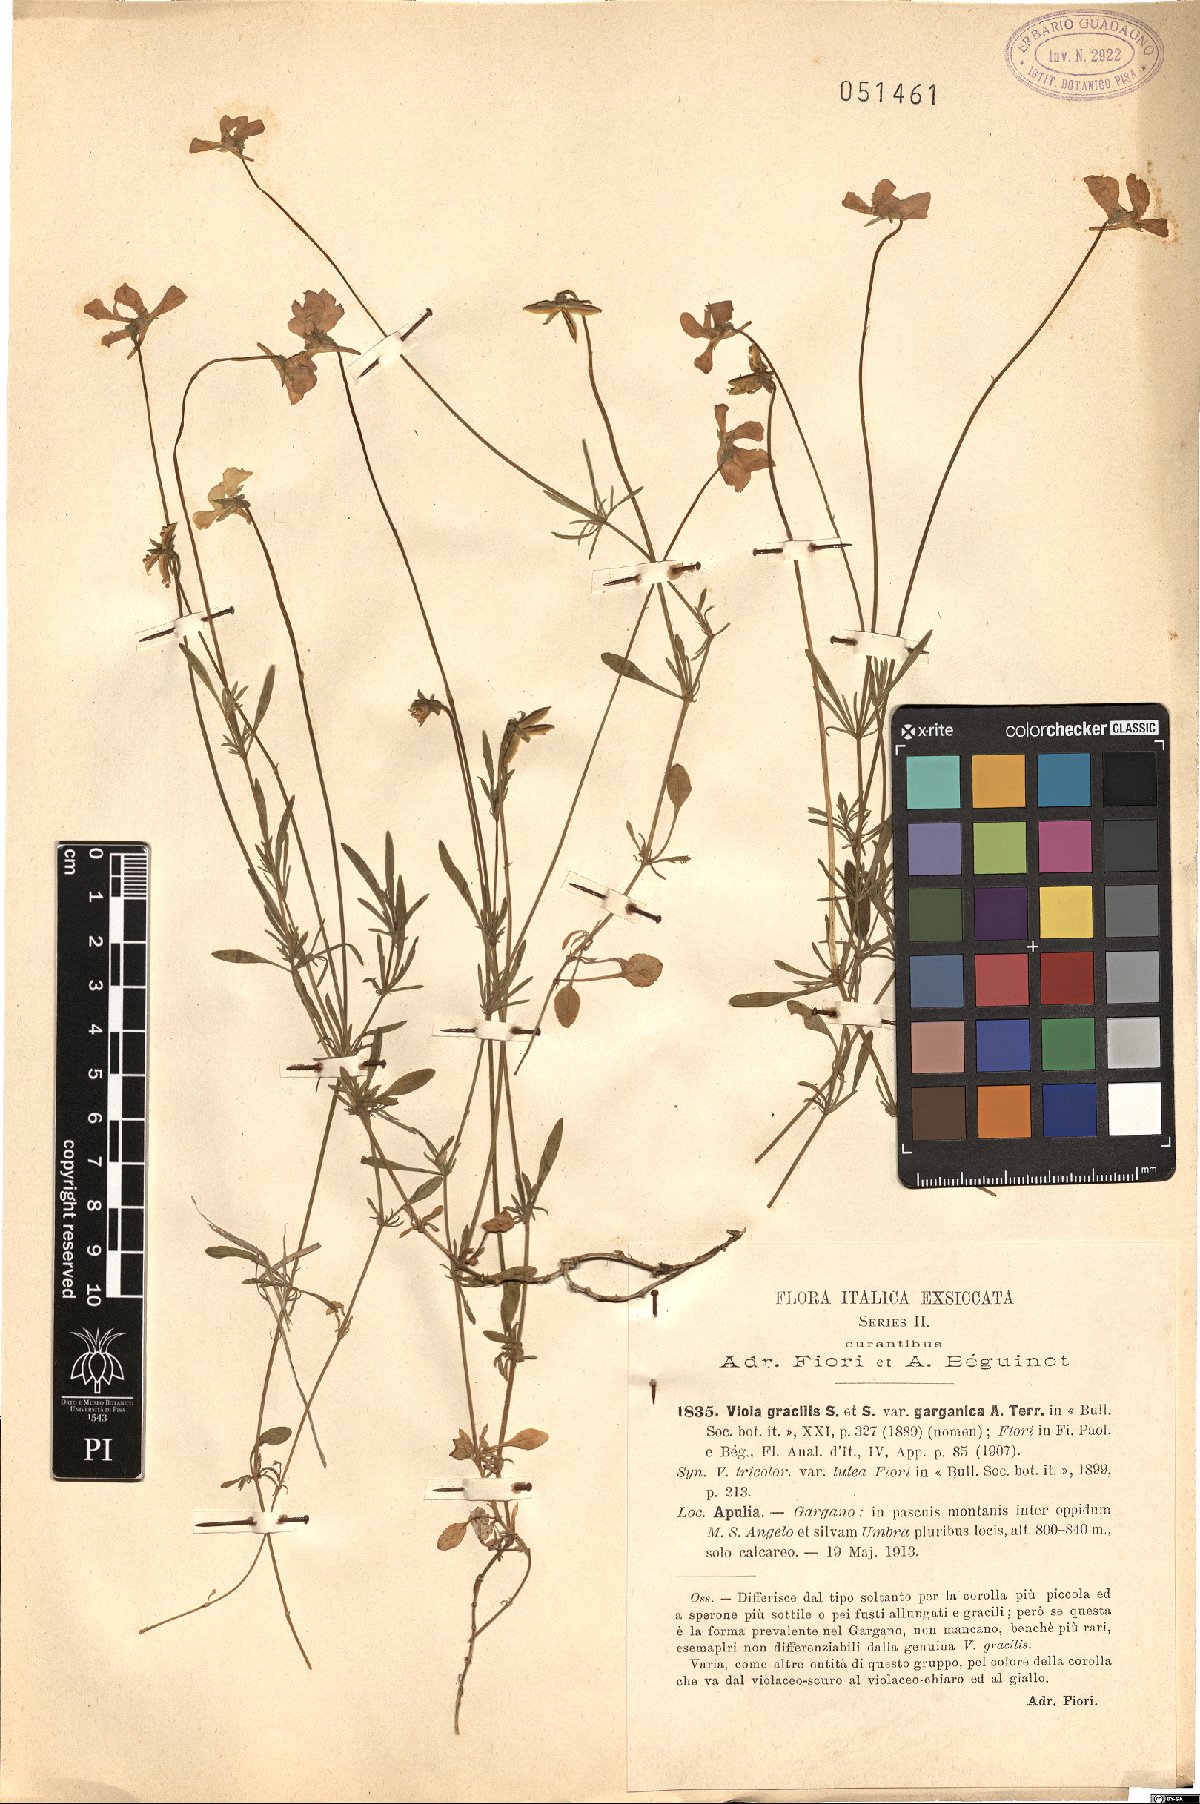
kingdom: Plantae
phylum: Tracheophyta
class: Magnoliopsida
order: Malpighiales
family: Violaceae
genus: Viola
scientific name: Viola gracilis
